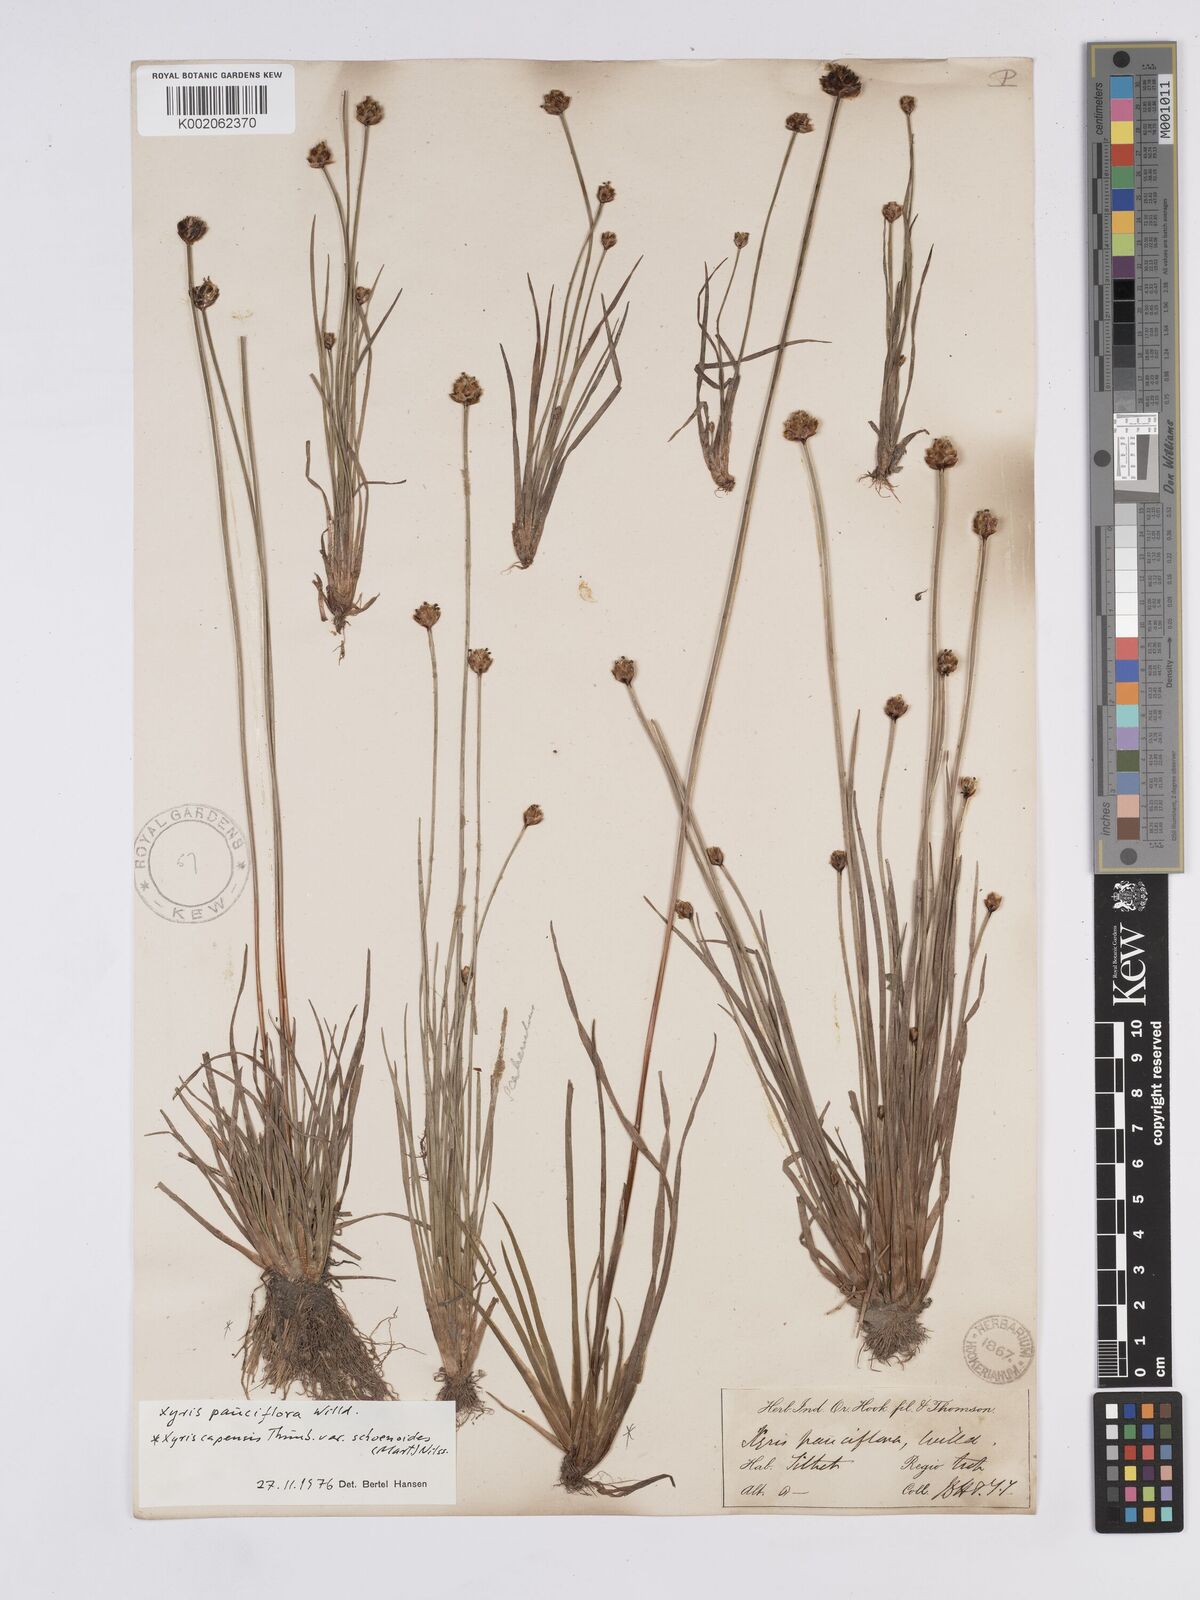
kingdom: Plantae
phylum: Tracheophyta
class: Liliopsida
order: Poales
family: Xyridaceae
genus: Xyris
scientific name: Xyris pauciflora
